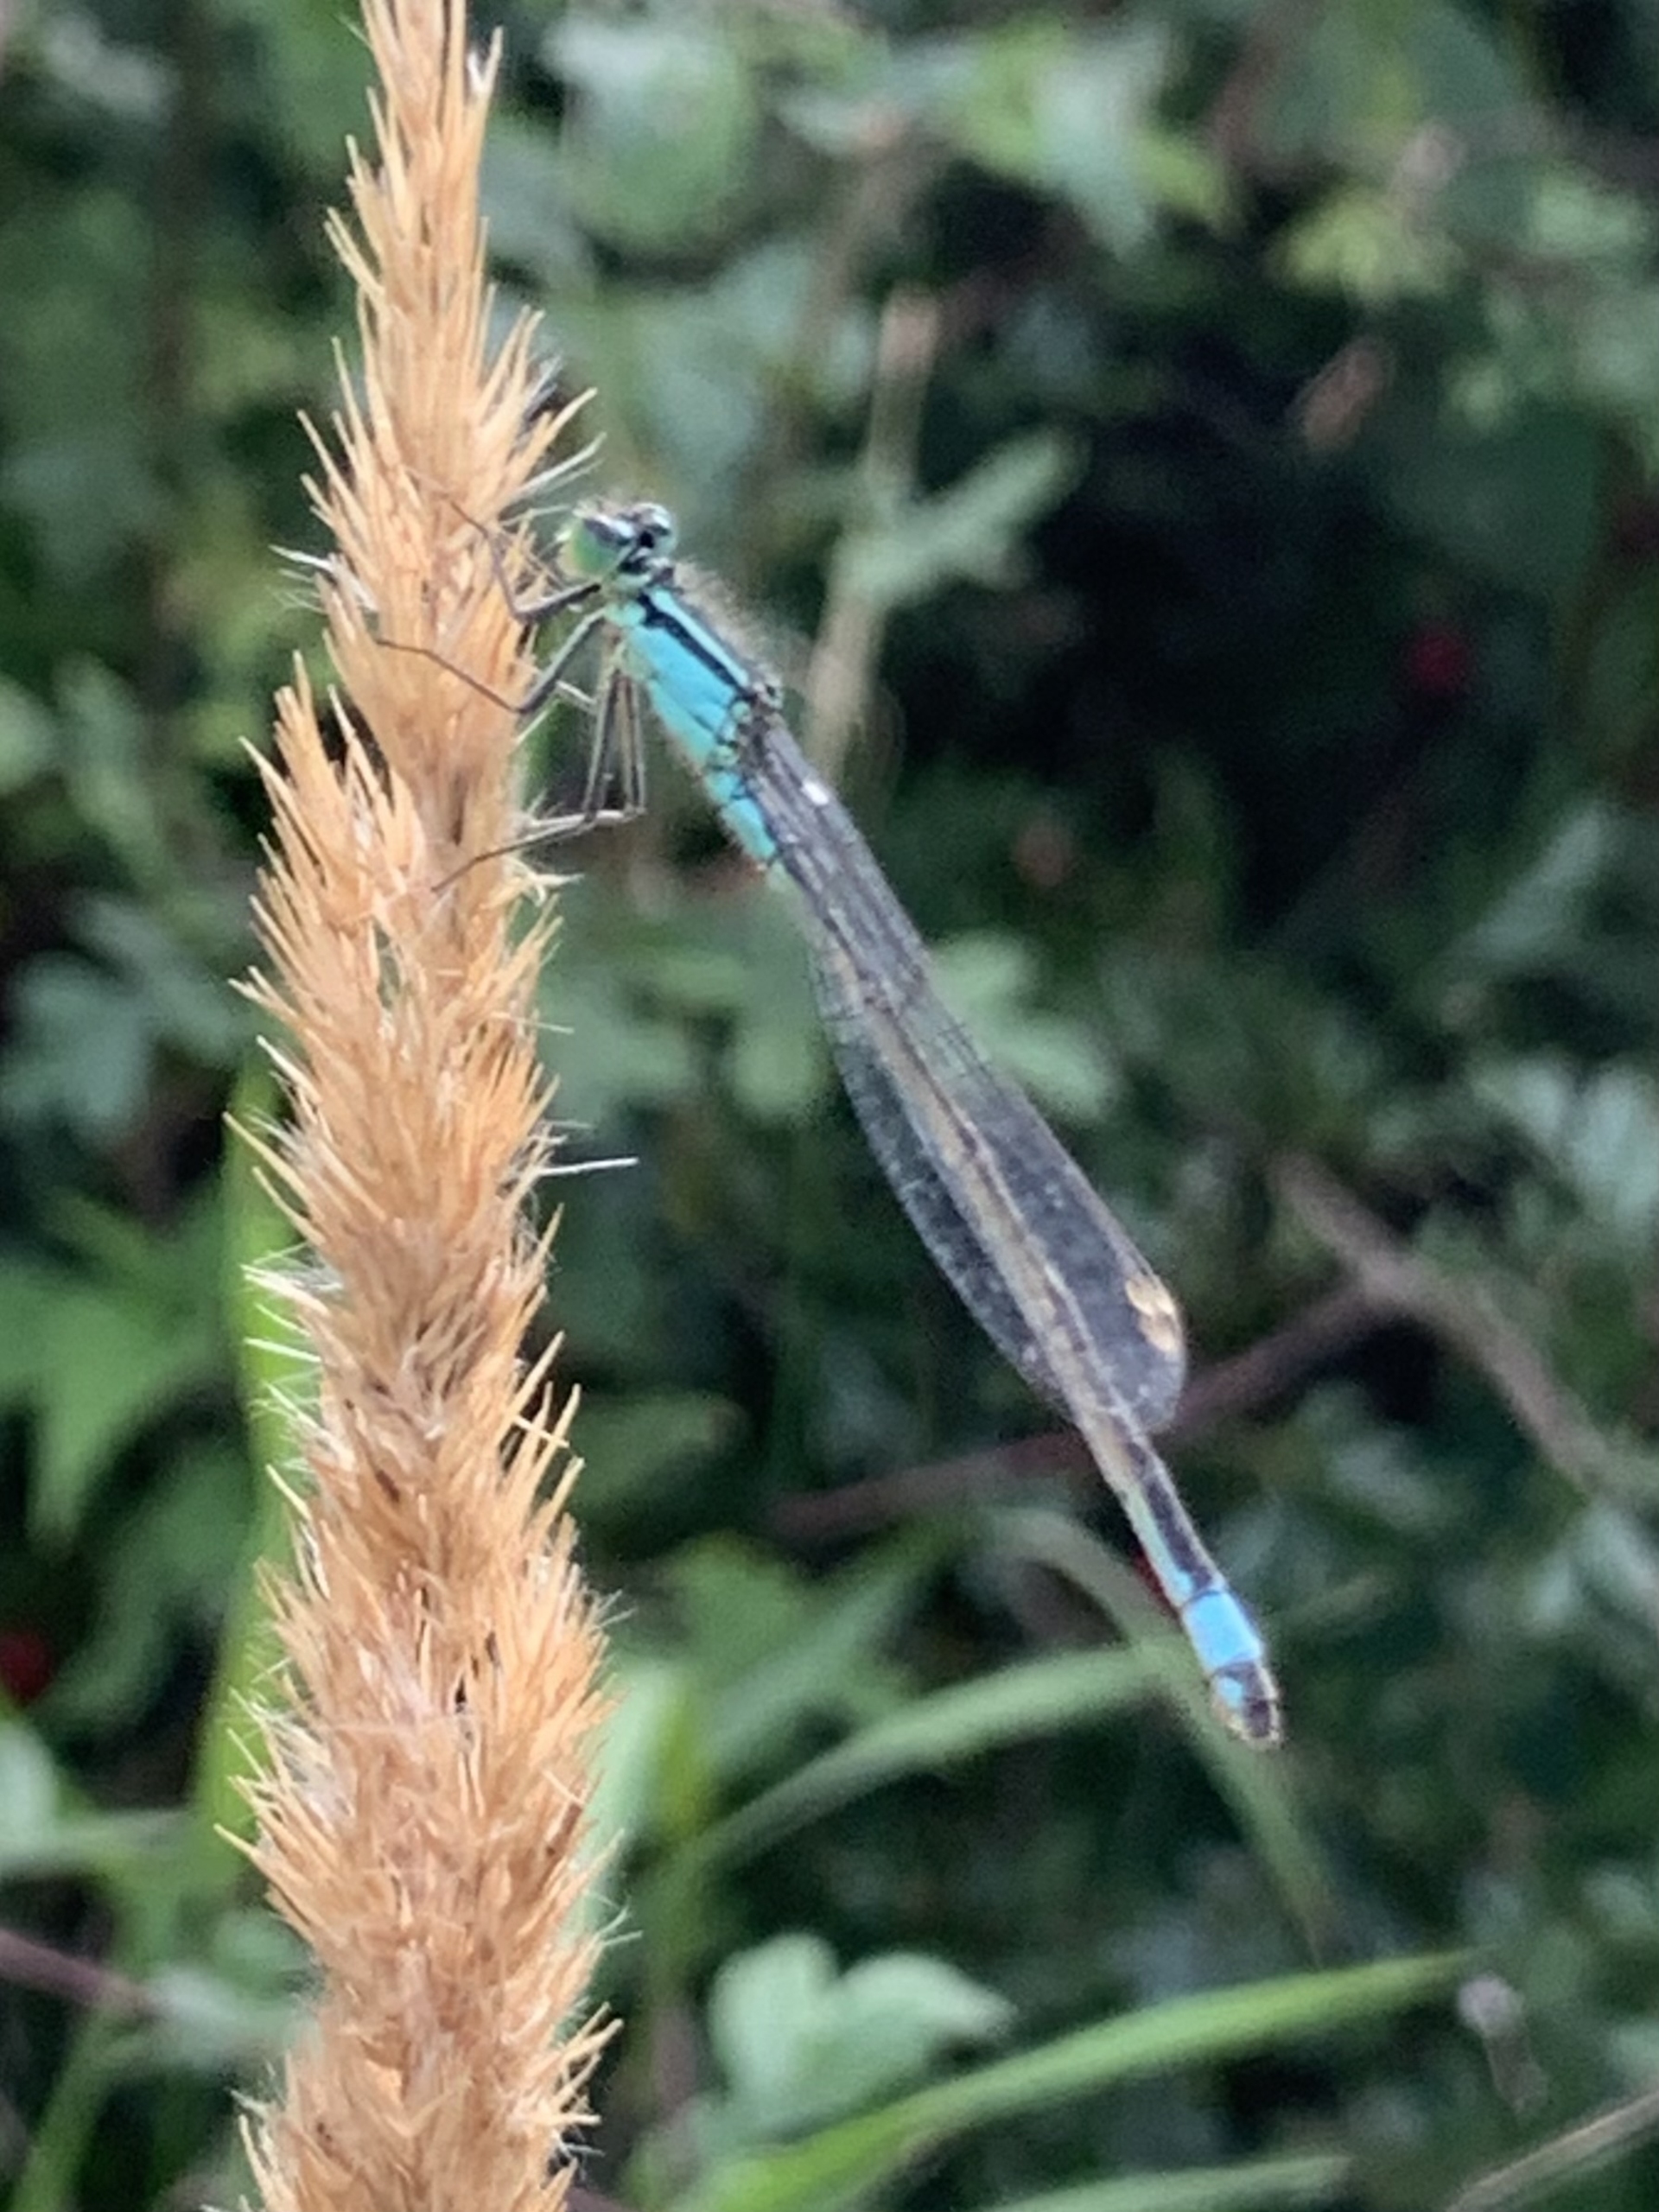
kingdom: Animalia
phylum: Arthropoda
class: Insecta
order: Odonata
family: Coenagrionidae
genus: Ischnura
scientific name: Ischnura elegans
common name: Stor farvevandnymfe
